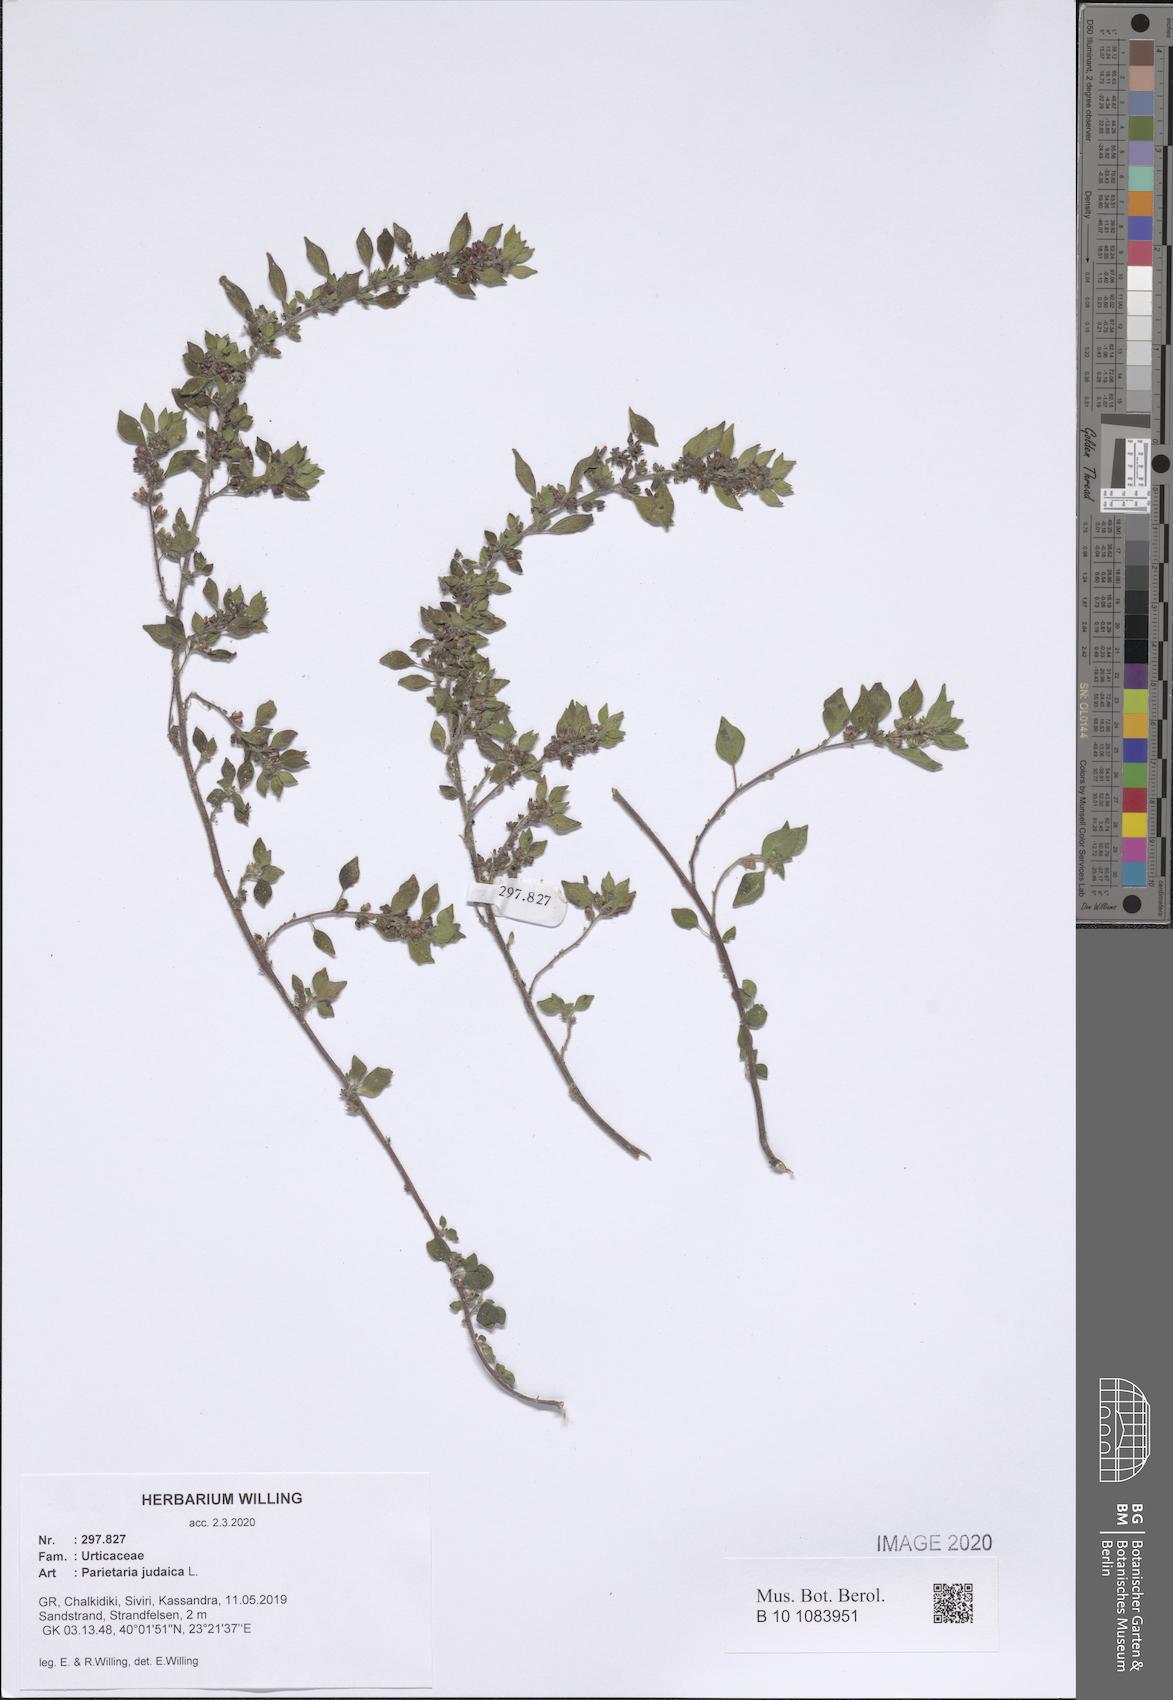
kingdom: Plantae
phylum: Tracheophyta
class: Magnoliopsida
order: Rosales
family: Urticaceae
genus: Parietaria
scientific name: Parietaria judaica
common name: Pellitory-of-the-wall
